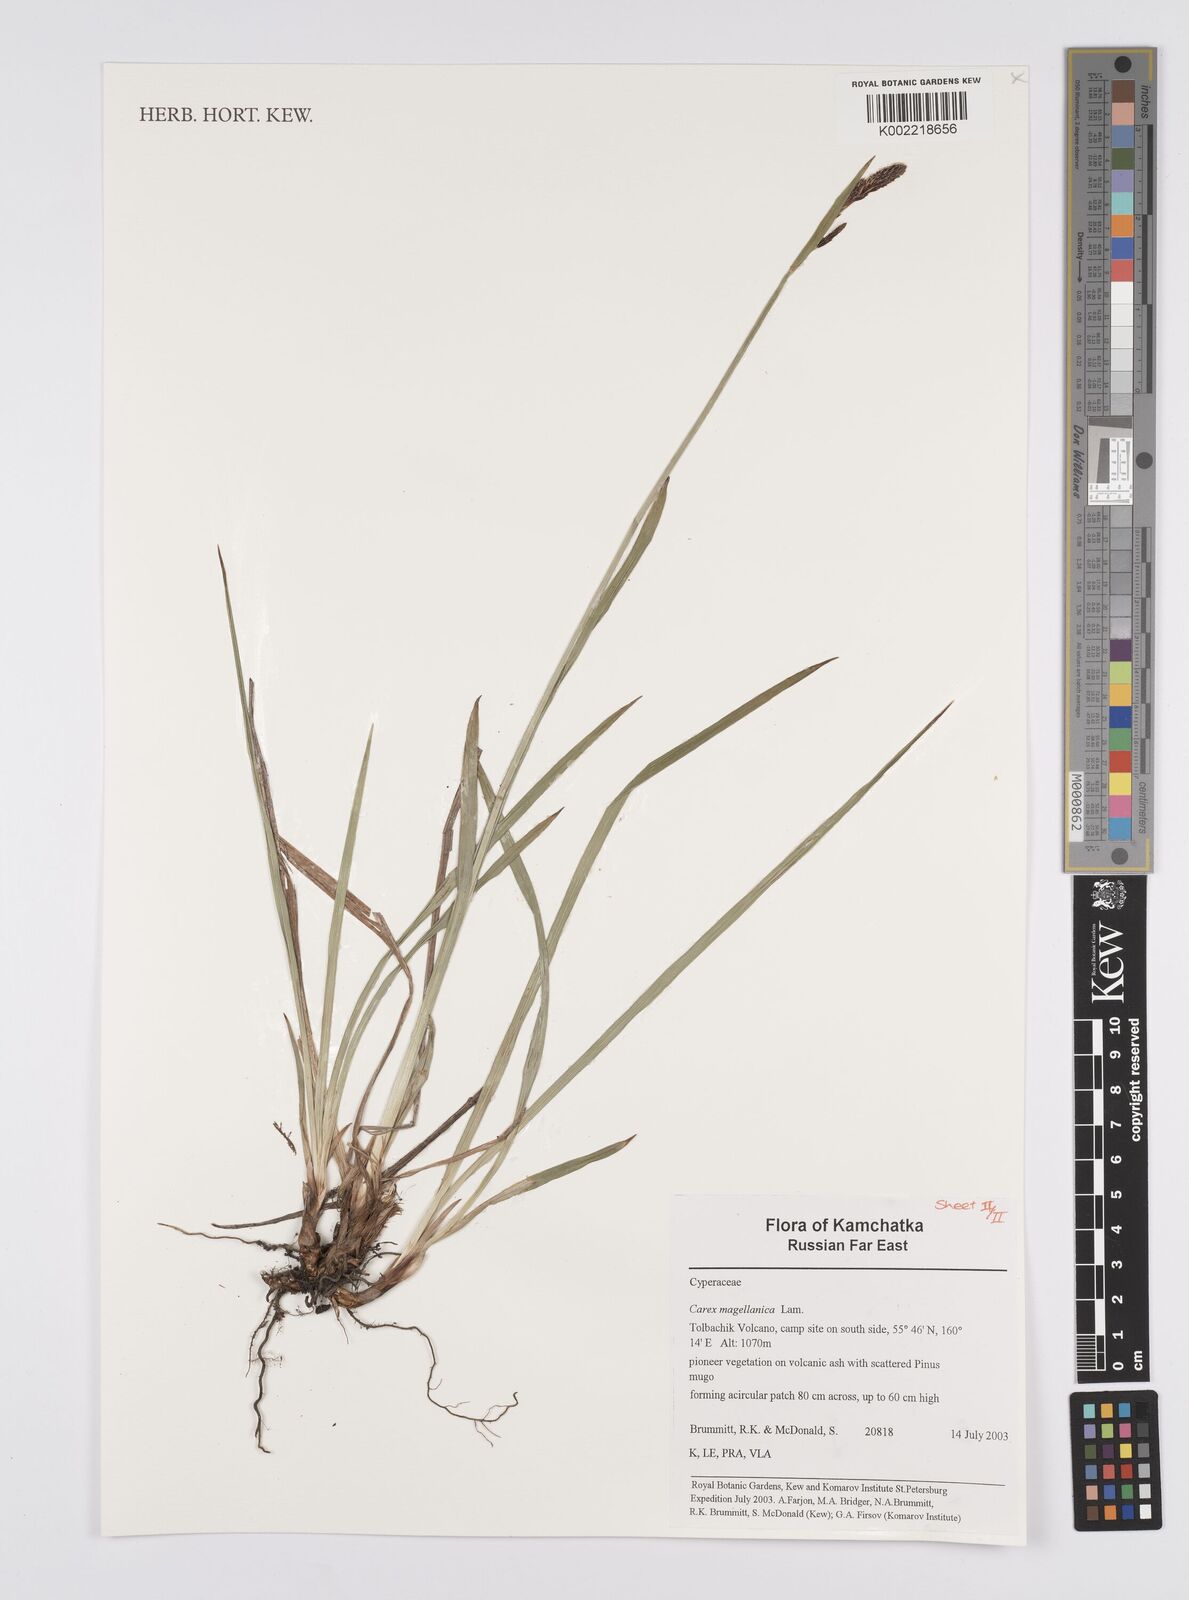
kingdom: Plantae
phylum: Tracheophyta
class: Liliopsida
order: Poales
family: Cyperaceae
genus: Carex
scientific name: Carex magellanica
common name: Bog sedge
